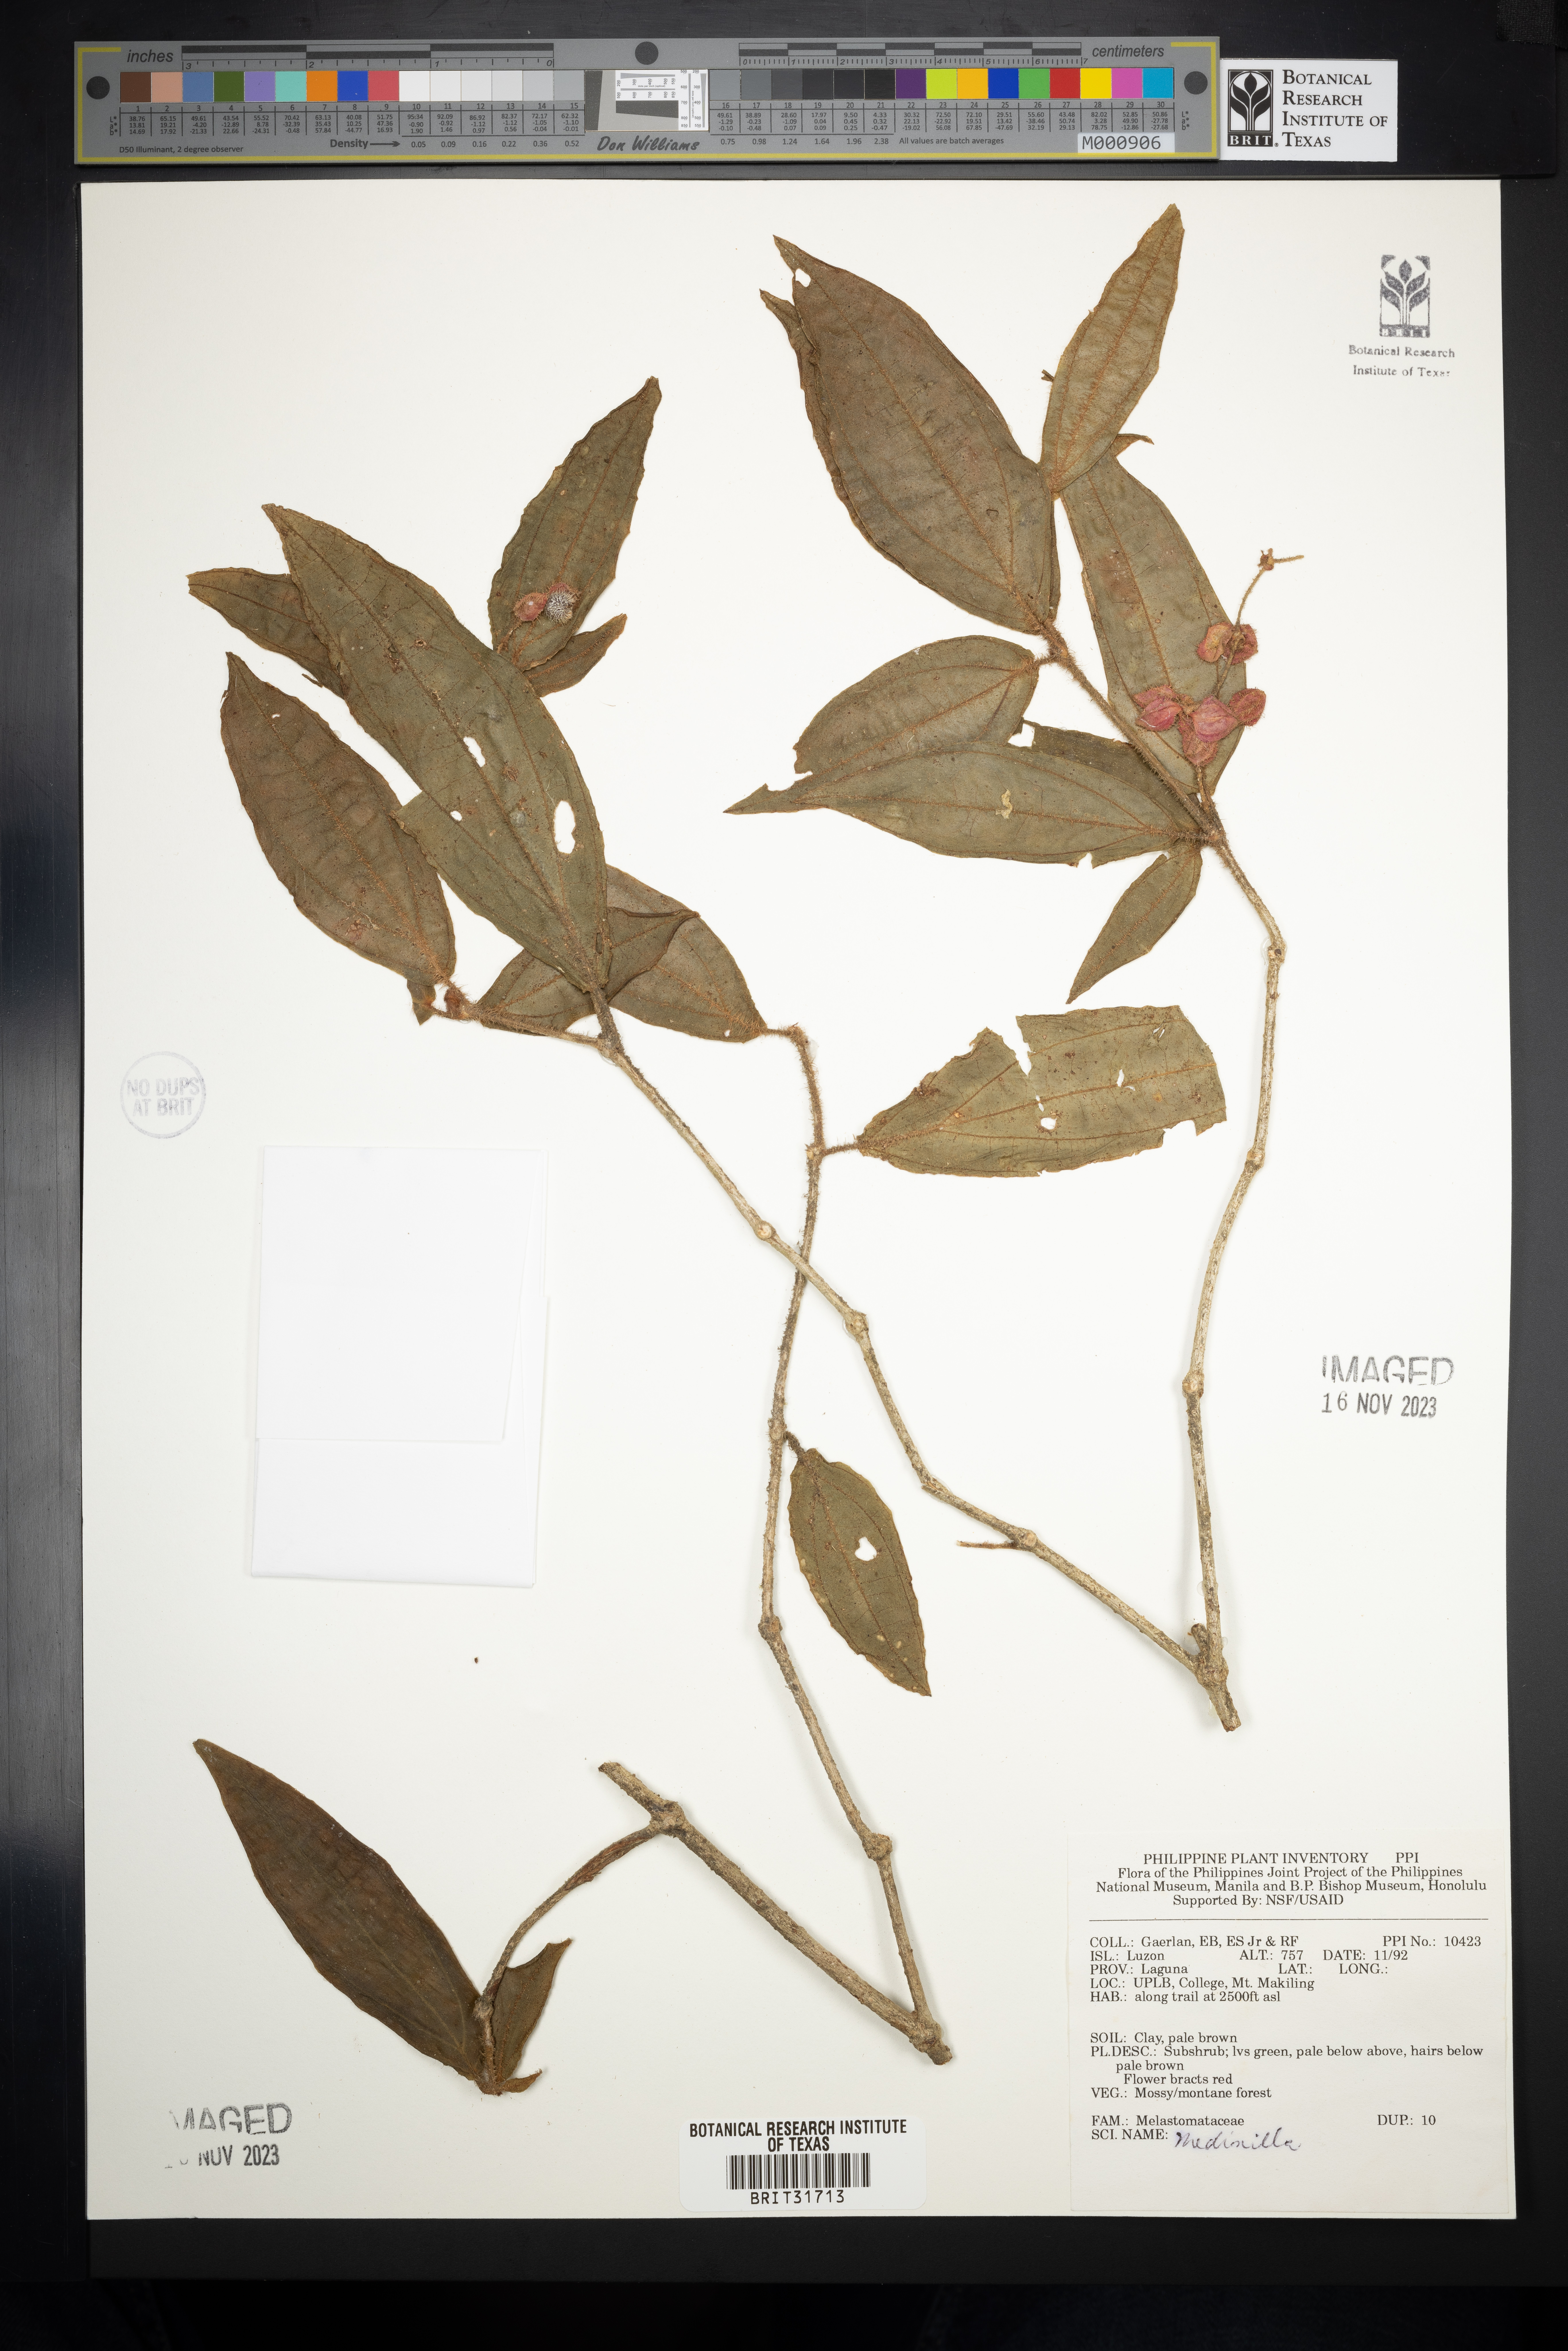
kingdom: Plantae
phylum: Tracheophyta
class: Magnoliopsida
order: Myrtales
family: Melastomataceae
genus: Medinilla
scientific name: Medinilla
